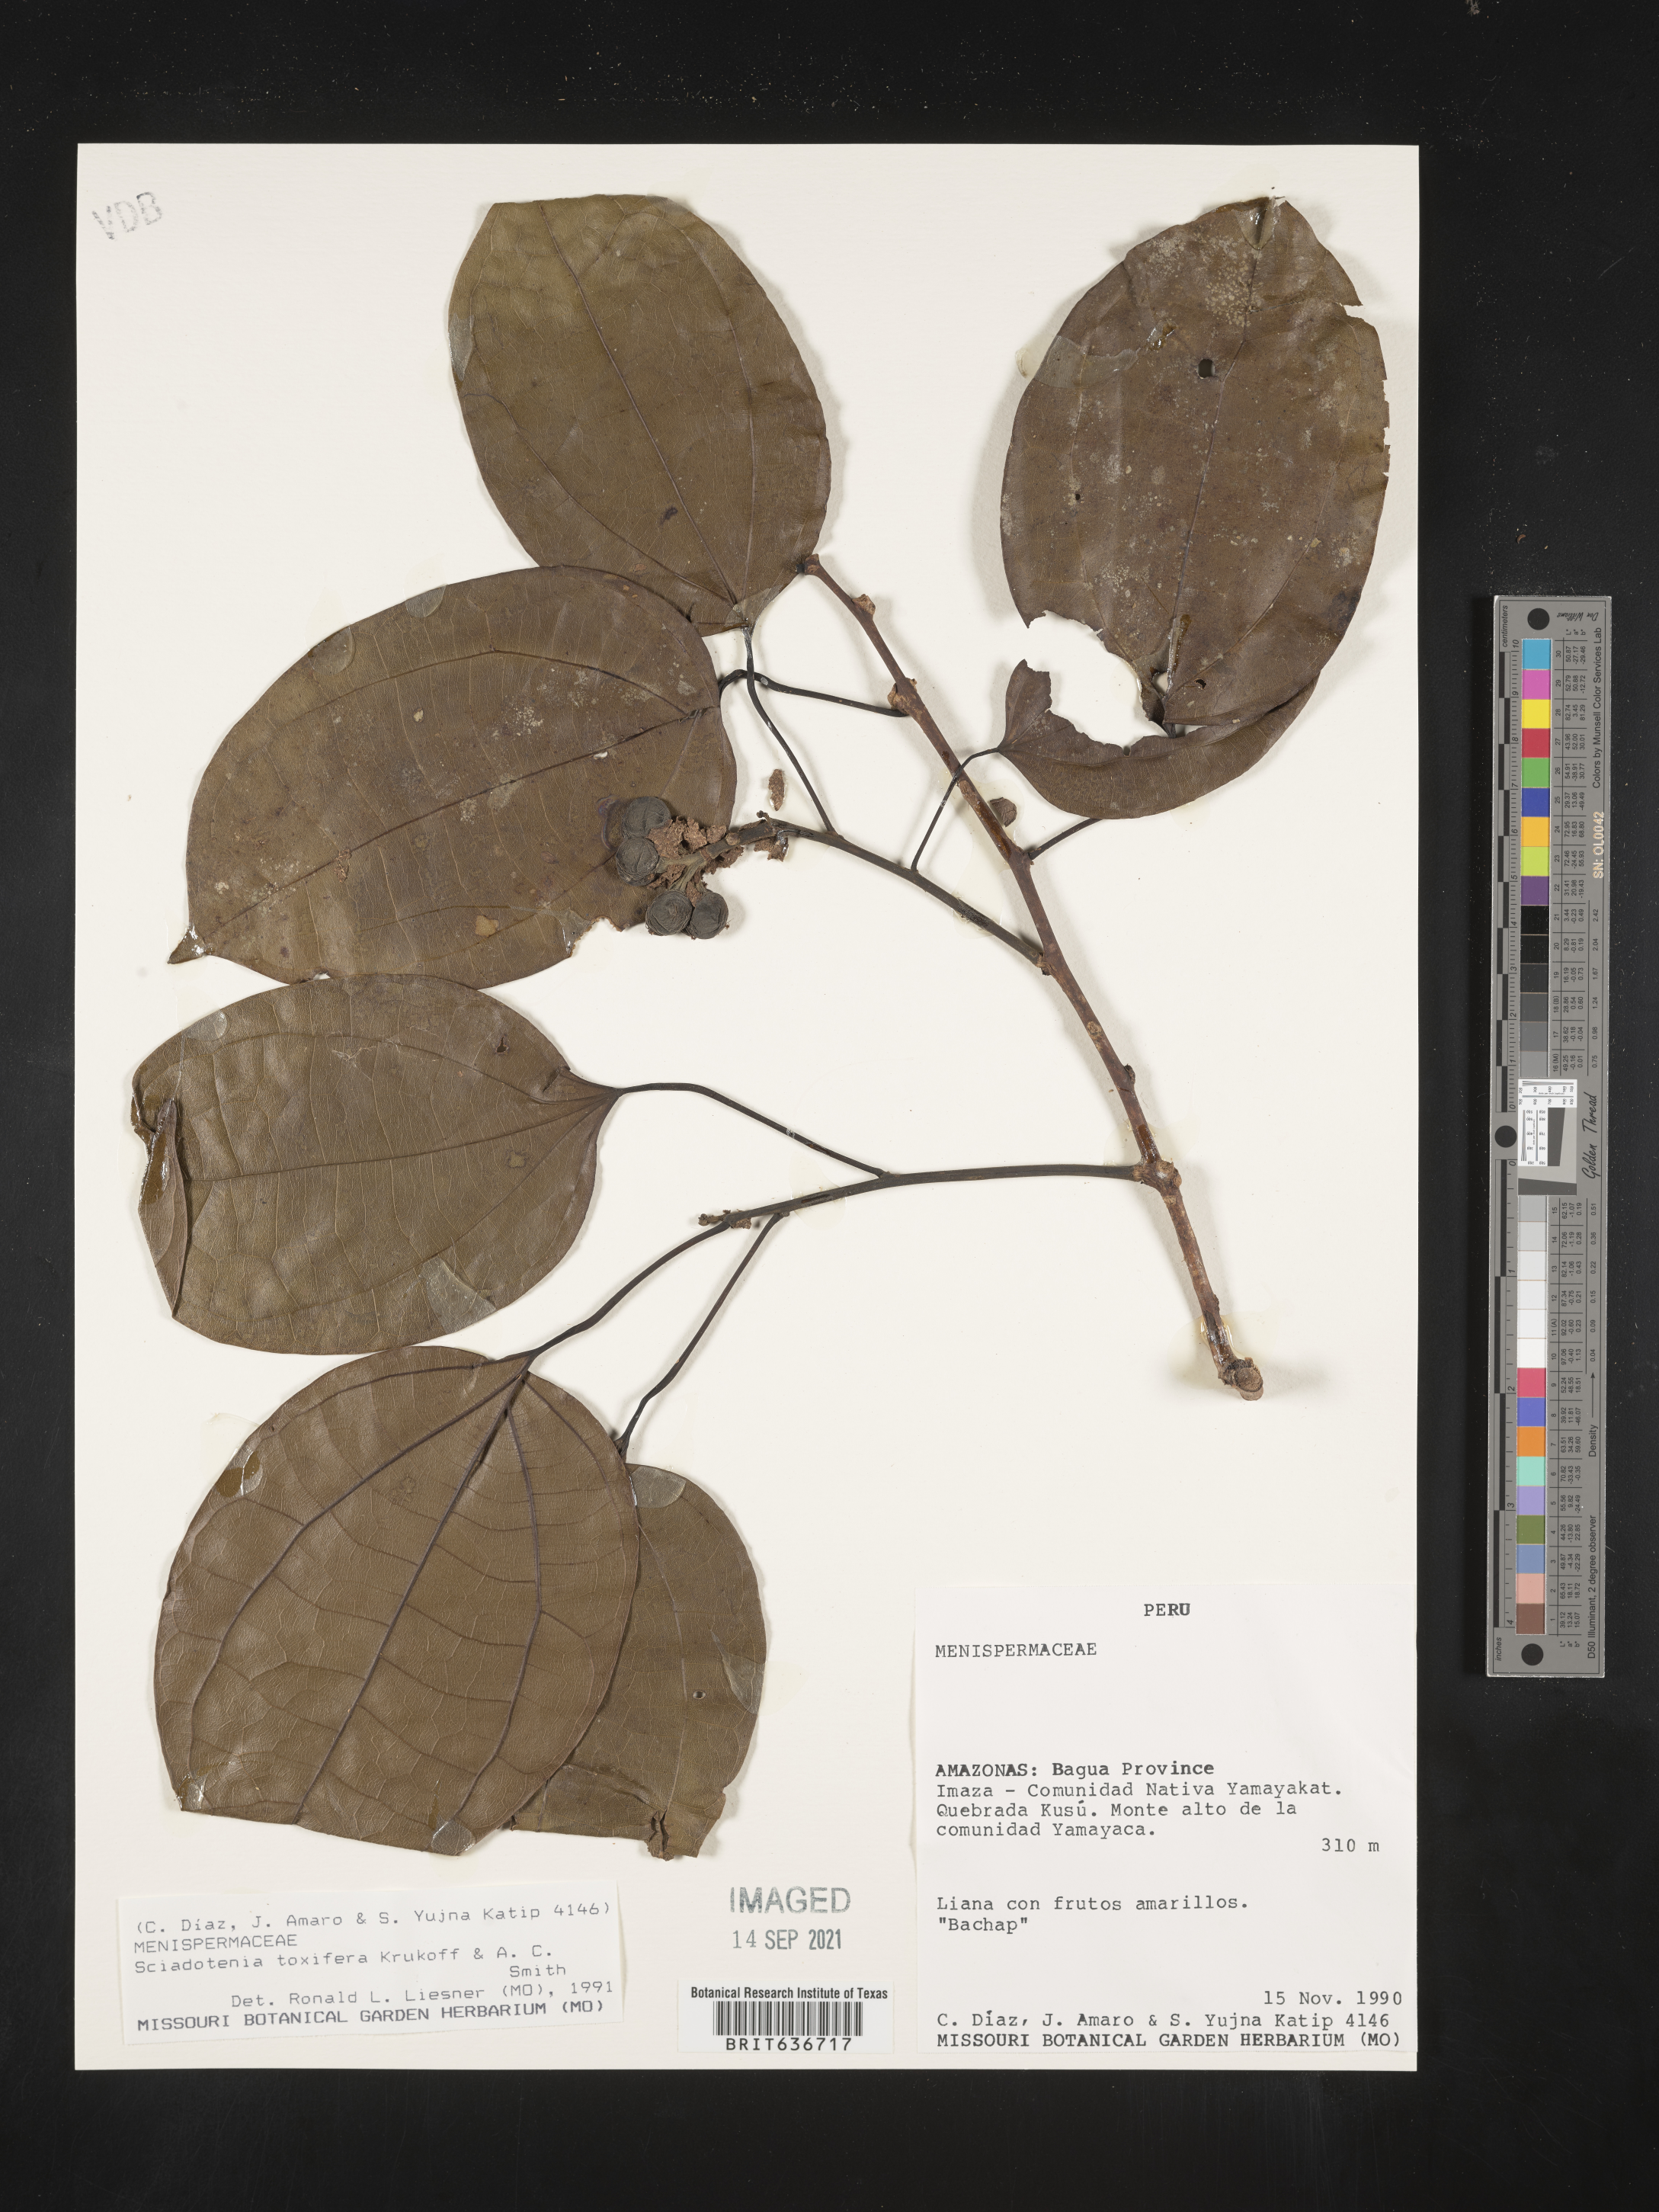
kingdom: Plantae
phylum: Tracheophyta
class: Magnoliopsida
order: Ranunculales
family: Menispermaceae
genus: Sciadotenia
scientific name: Sciadotenia toxifera
